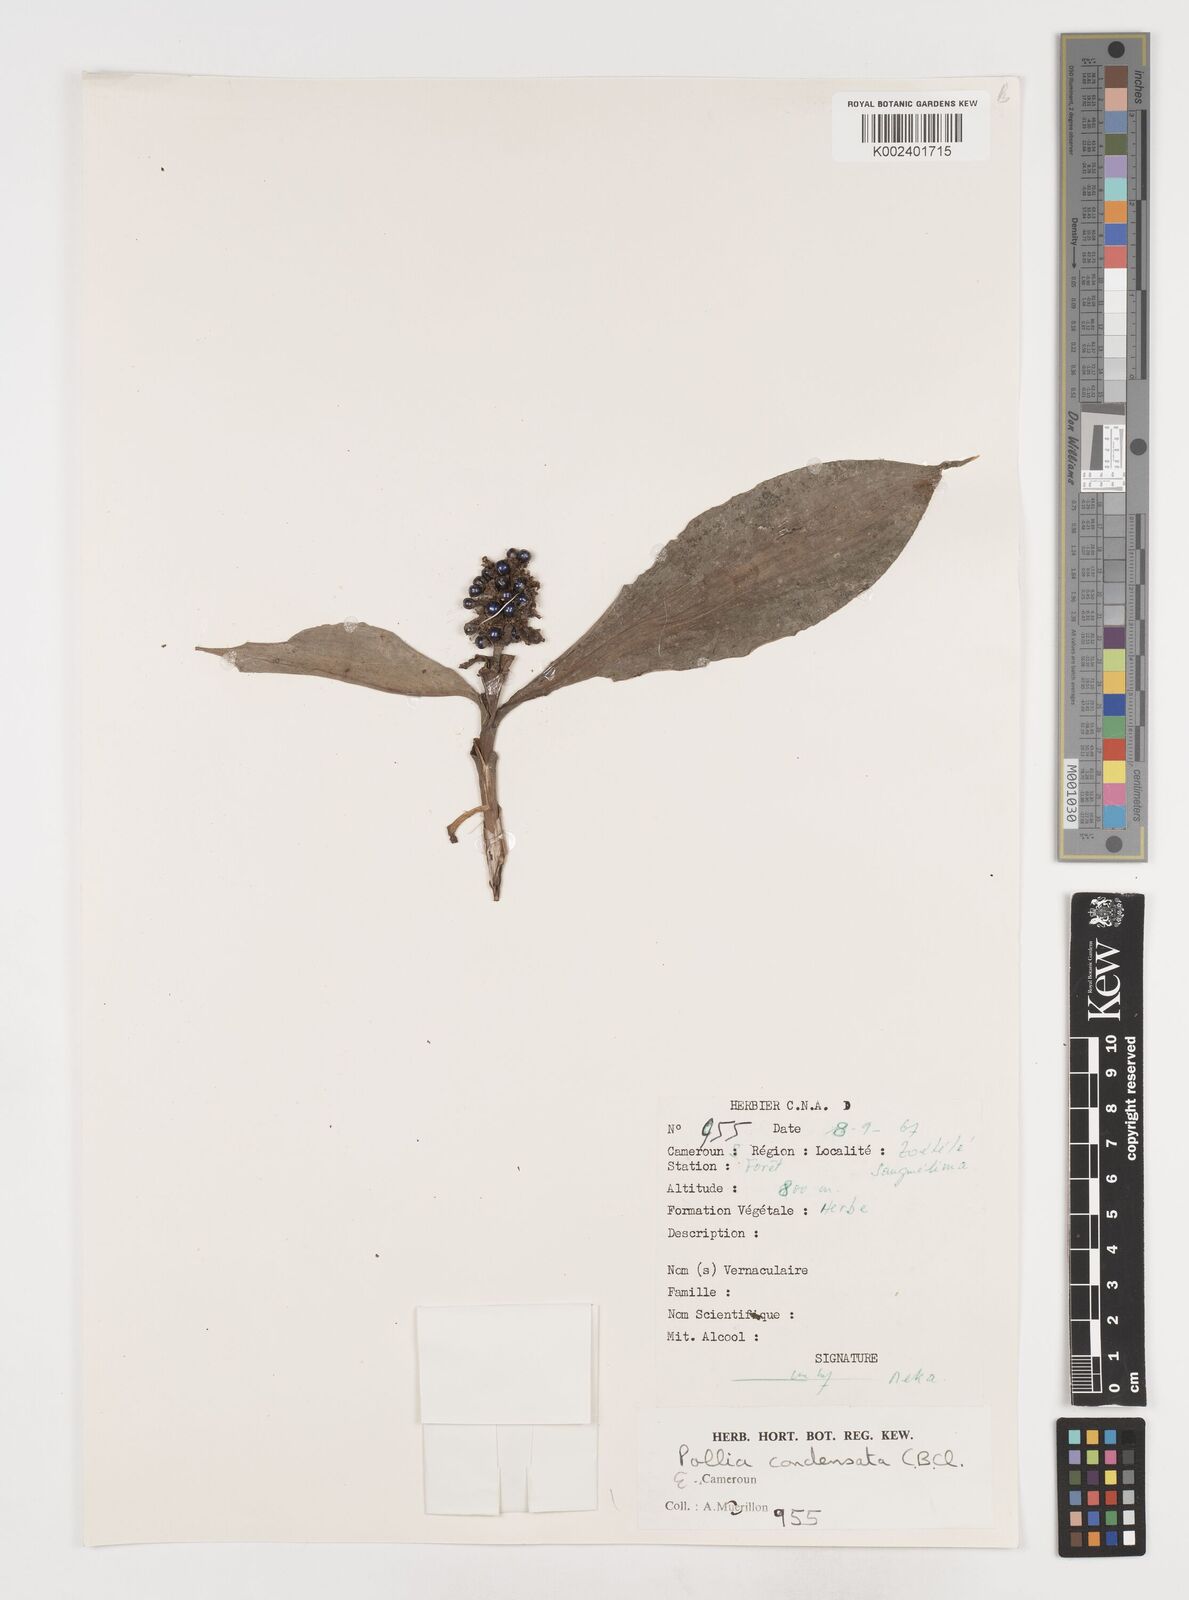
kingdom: Plantae
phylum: Tracheophyta
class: Liliopsida
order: Commelinales
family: Commelinaceae
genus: Pollia
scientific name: Pollia condensata
